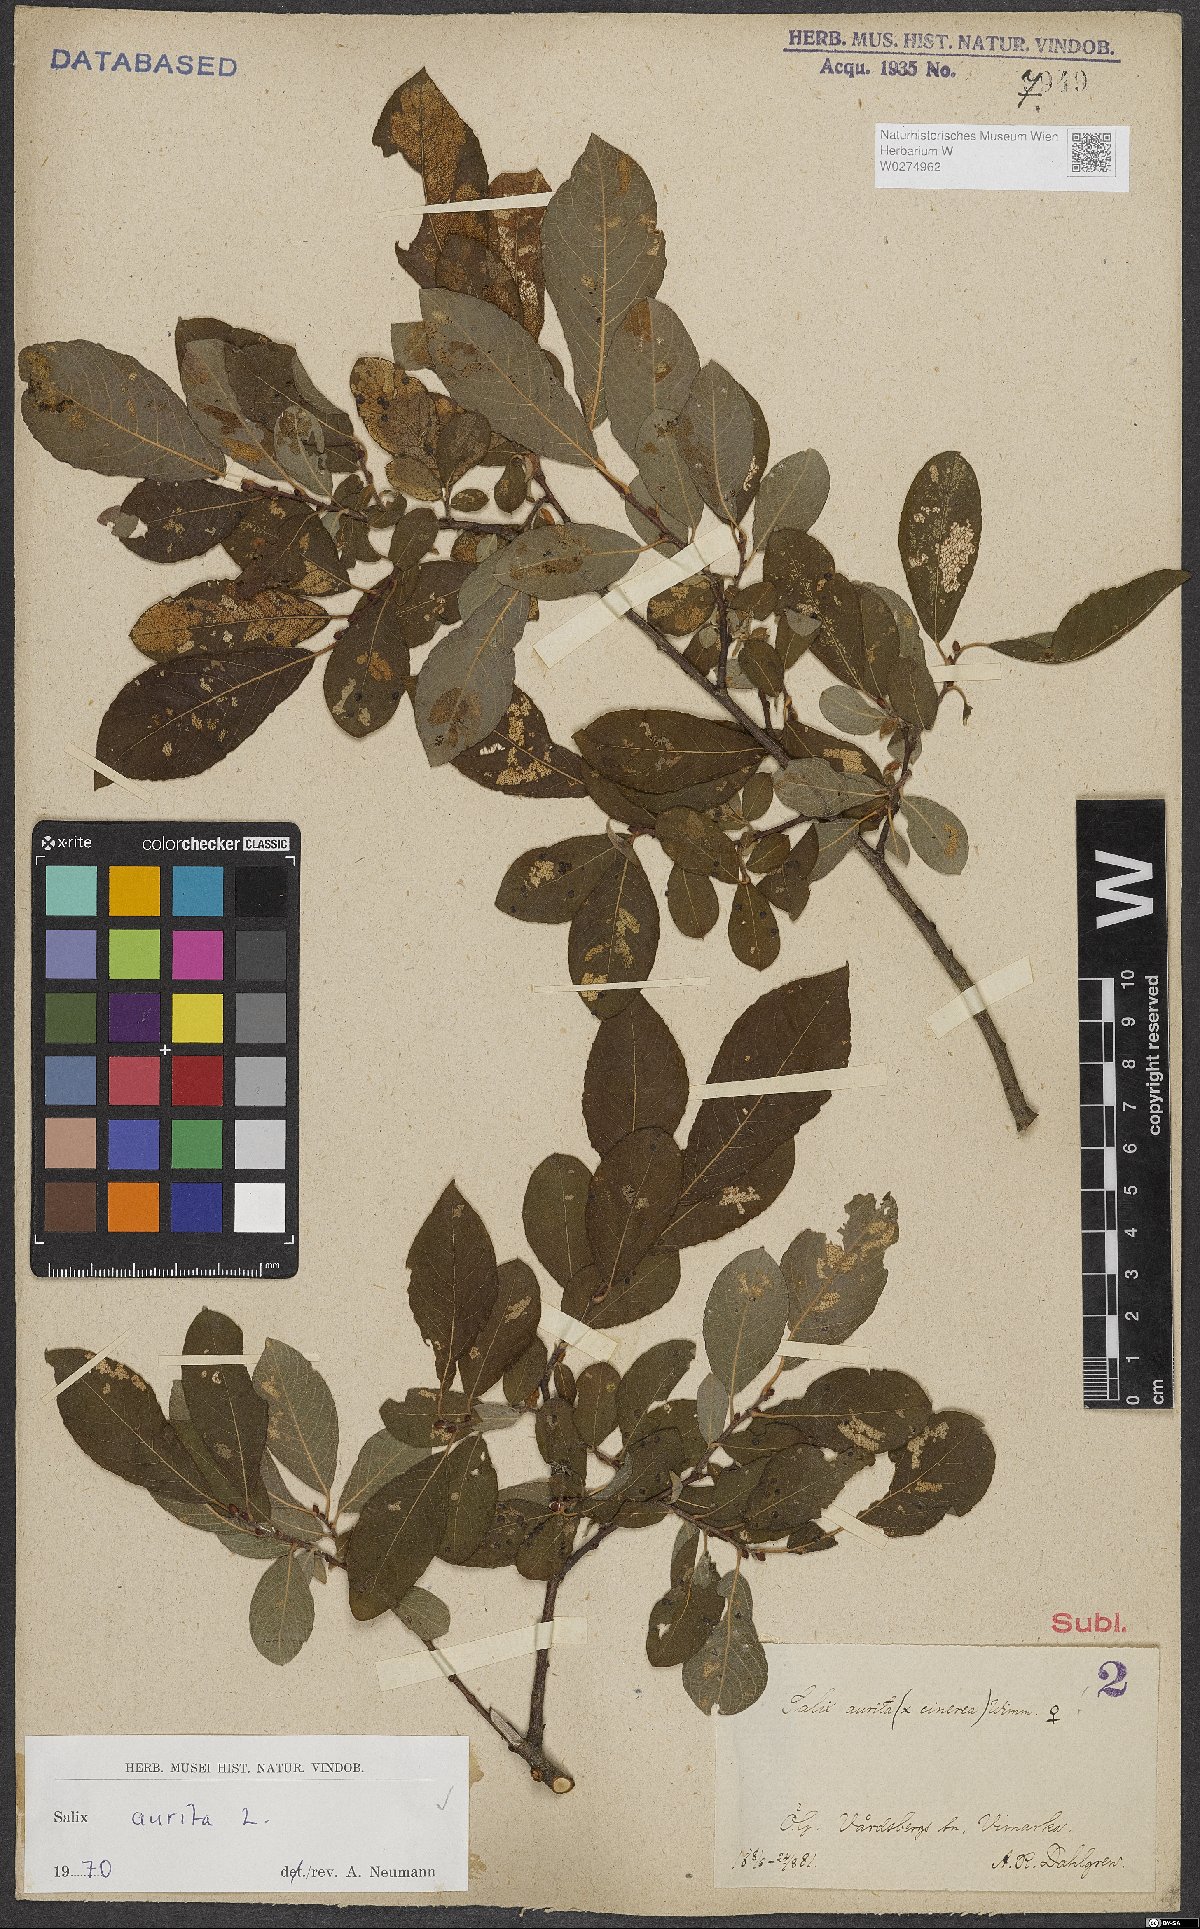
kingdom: Plantae
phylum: Tracheophyta
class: Magnoliopsida
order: Malpighiales
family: Salicaceae
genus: Salix
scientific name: Salix aurita
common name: Eared willow
